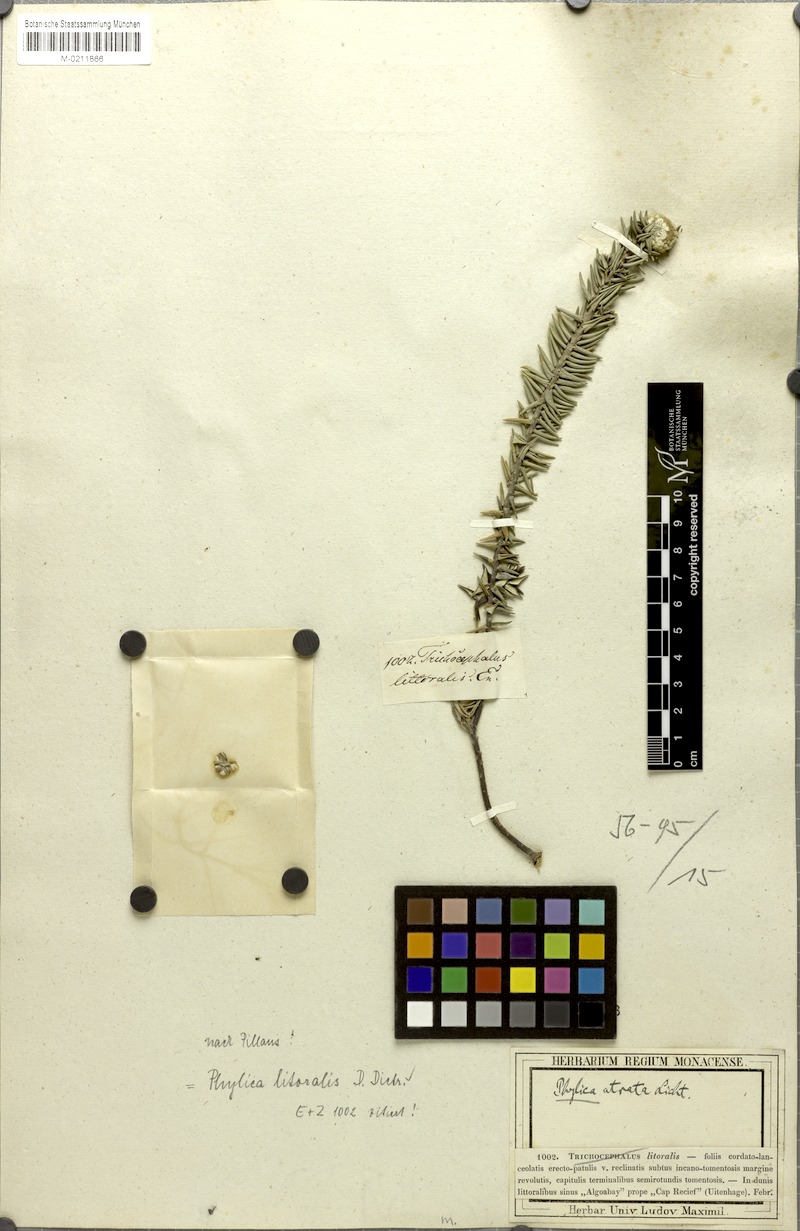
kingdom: Plantae
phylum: Tracheophyta
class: Magnoliopsida
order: Rosales
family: Rhamnaceae
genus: Phylica
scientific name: Phylica litoralis
